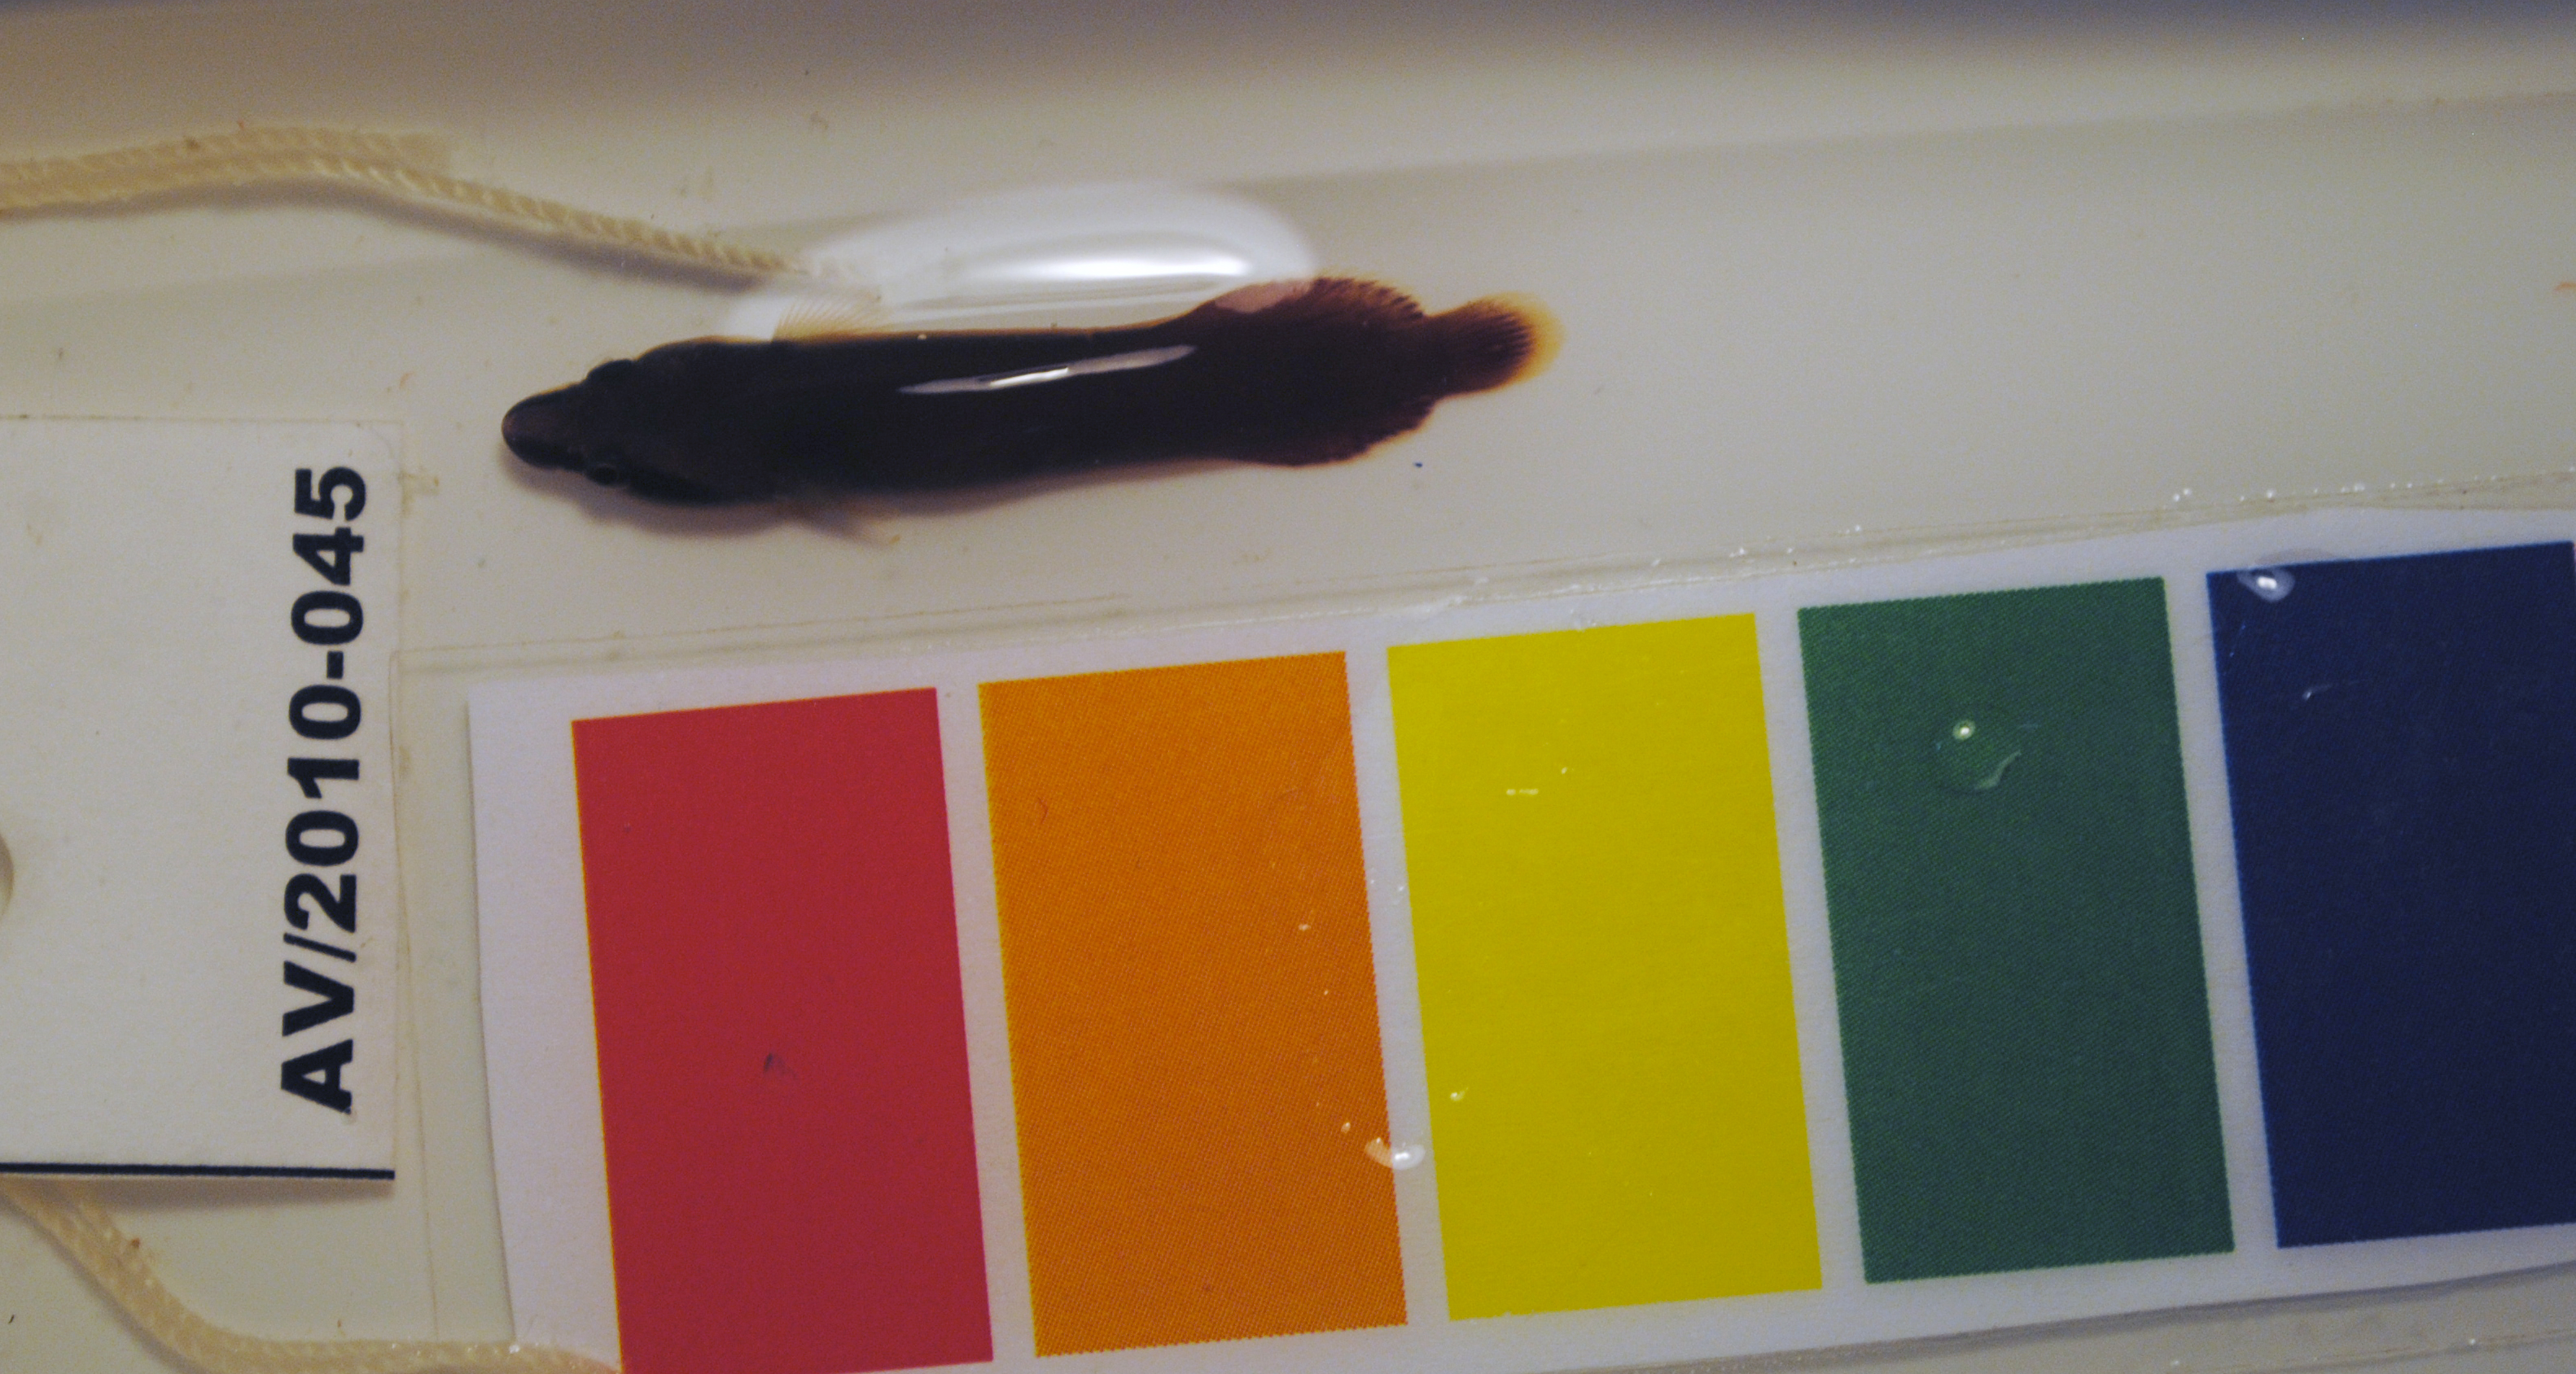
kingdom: Animalia
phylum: Chordata
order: Gobiesociformes
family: Gobiesocidae
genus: Lepadichthys
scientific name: Lepadichthys coccinotaenia
